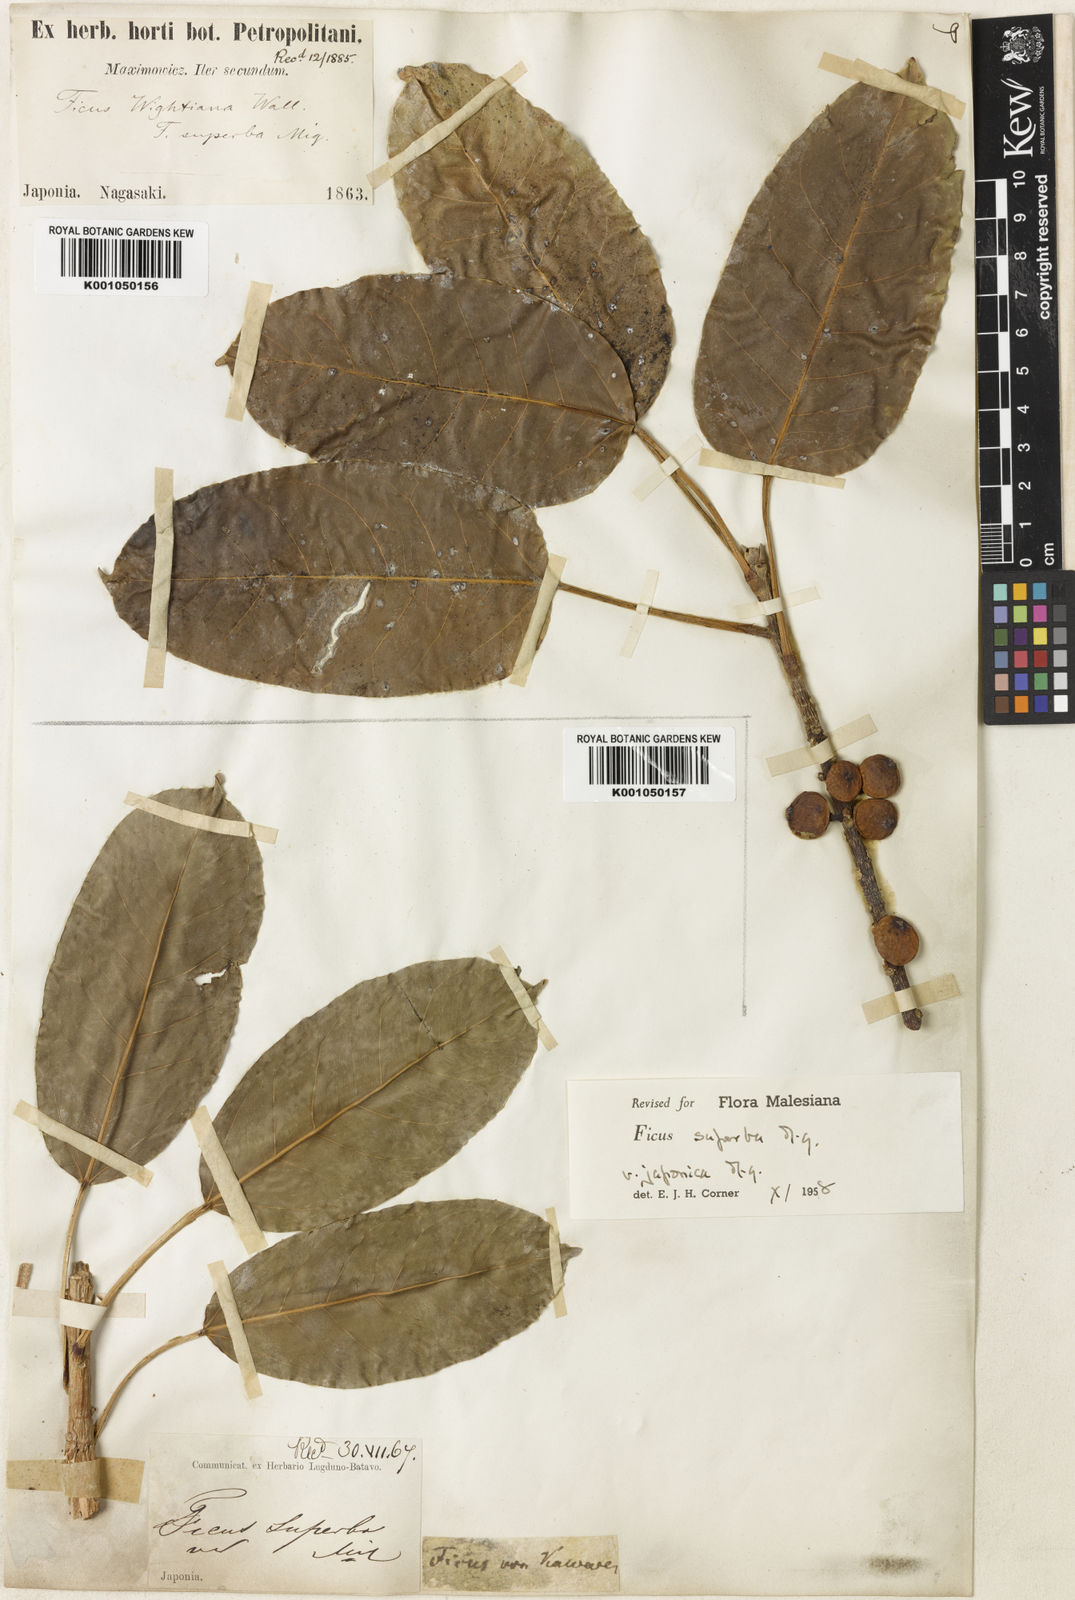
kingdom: Plantae
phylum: Tracheophyta
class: Magnoliopsida
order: Rosales
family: Moraceae
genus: Ficus
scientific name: Ficus superba
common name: Cedar fig
